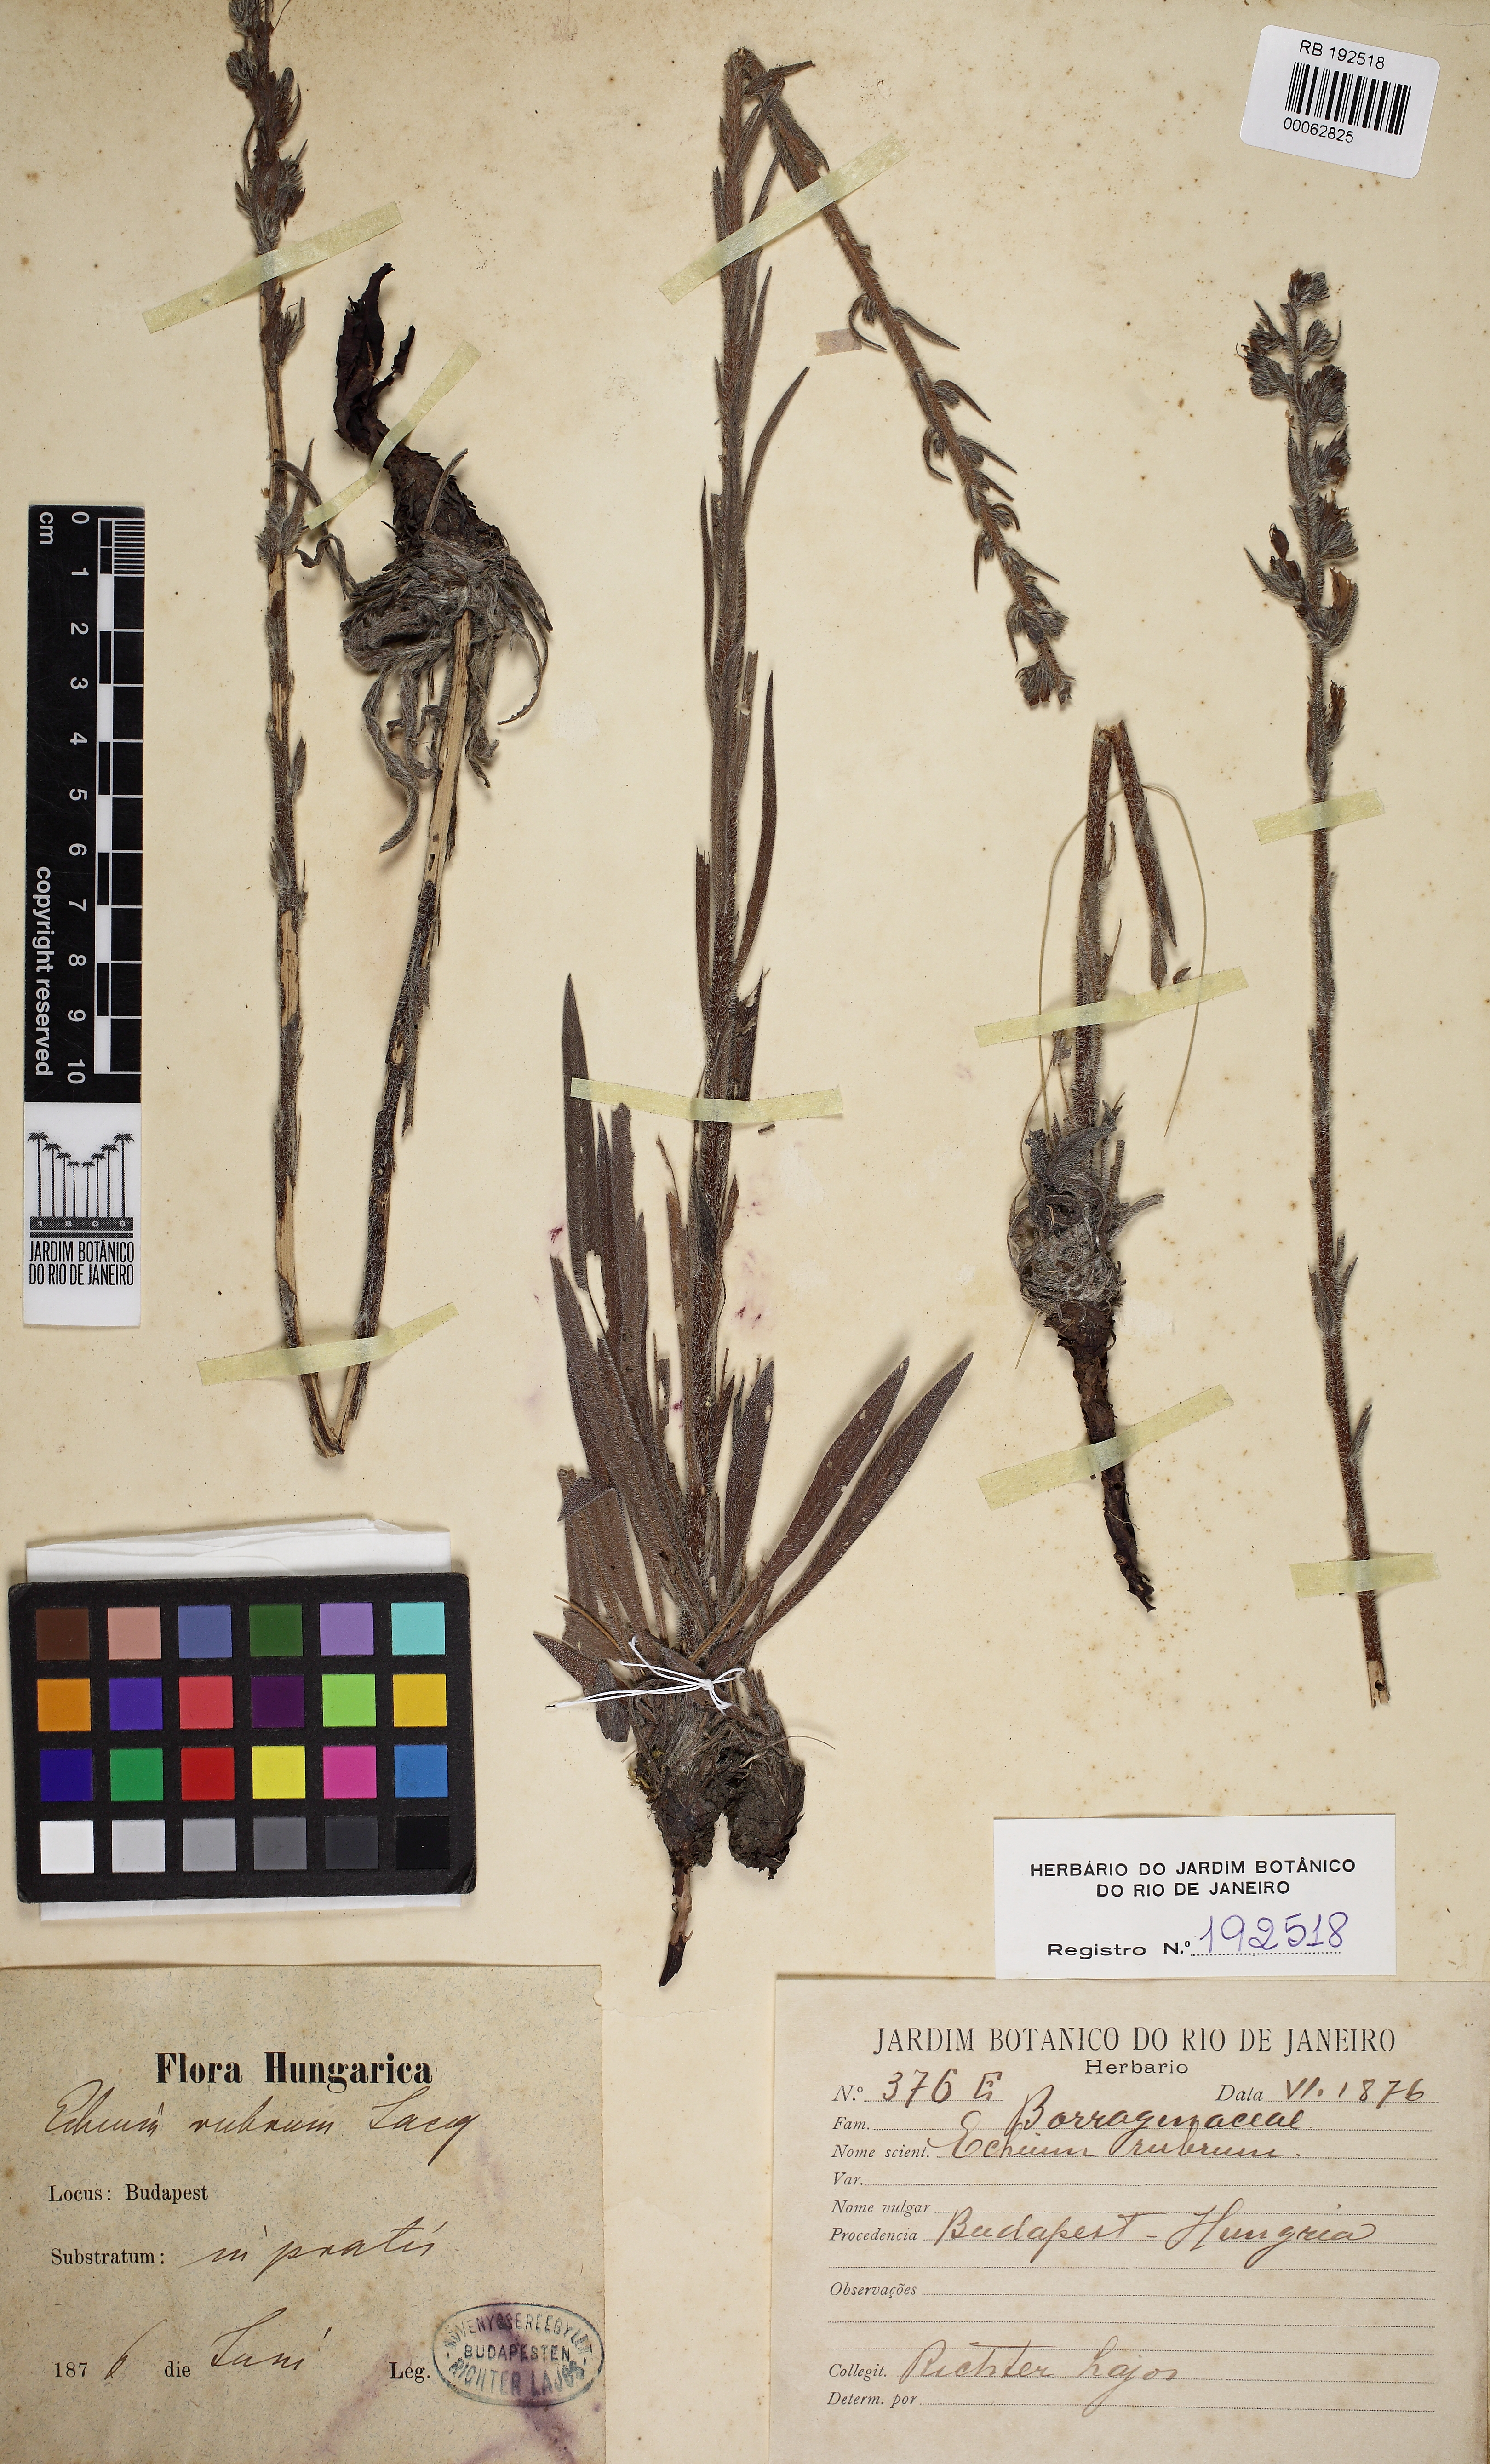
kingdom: Plantae
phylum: Tracheophyta
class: Magnoliopsida
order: Boraginales
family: Boraginaceae
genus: Echium
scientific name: Echium rubrum
